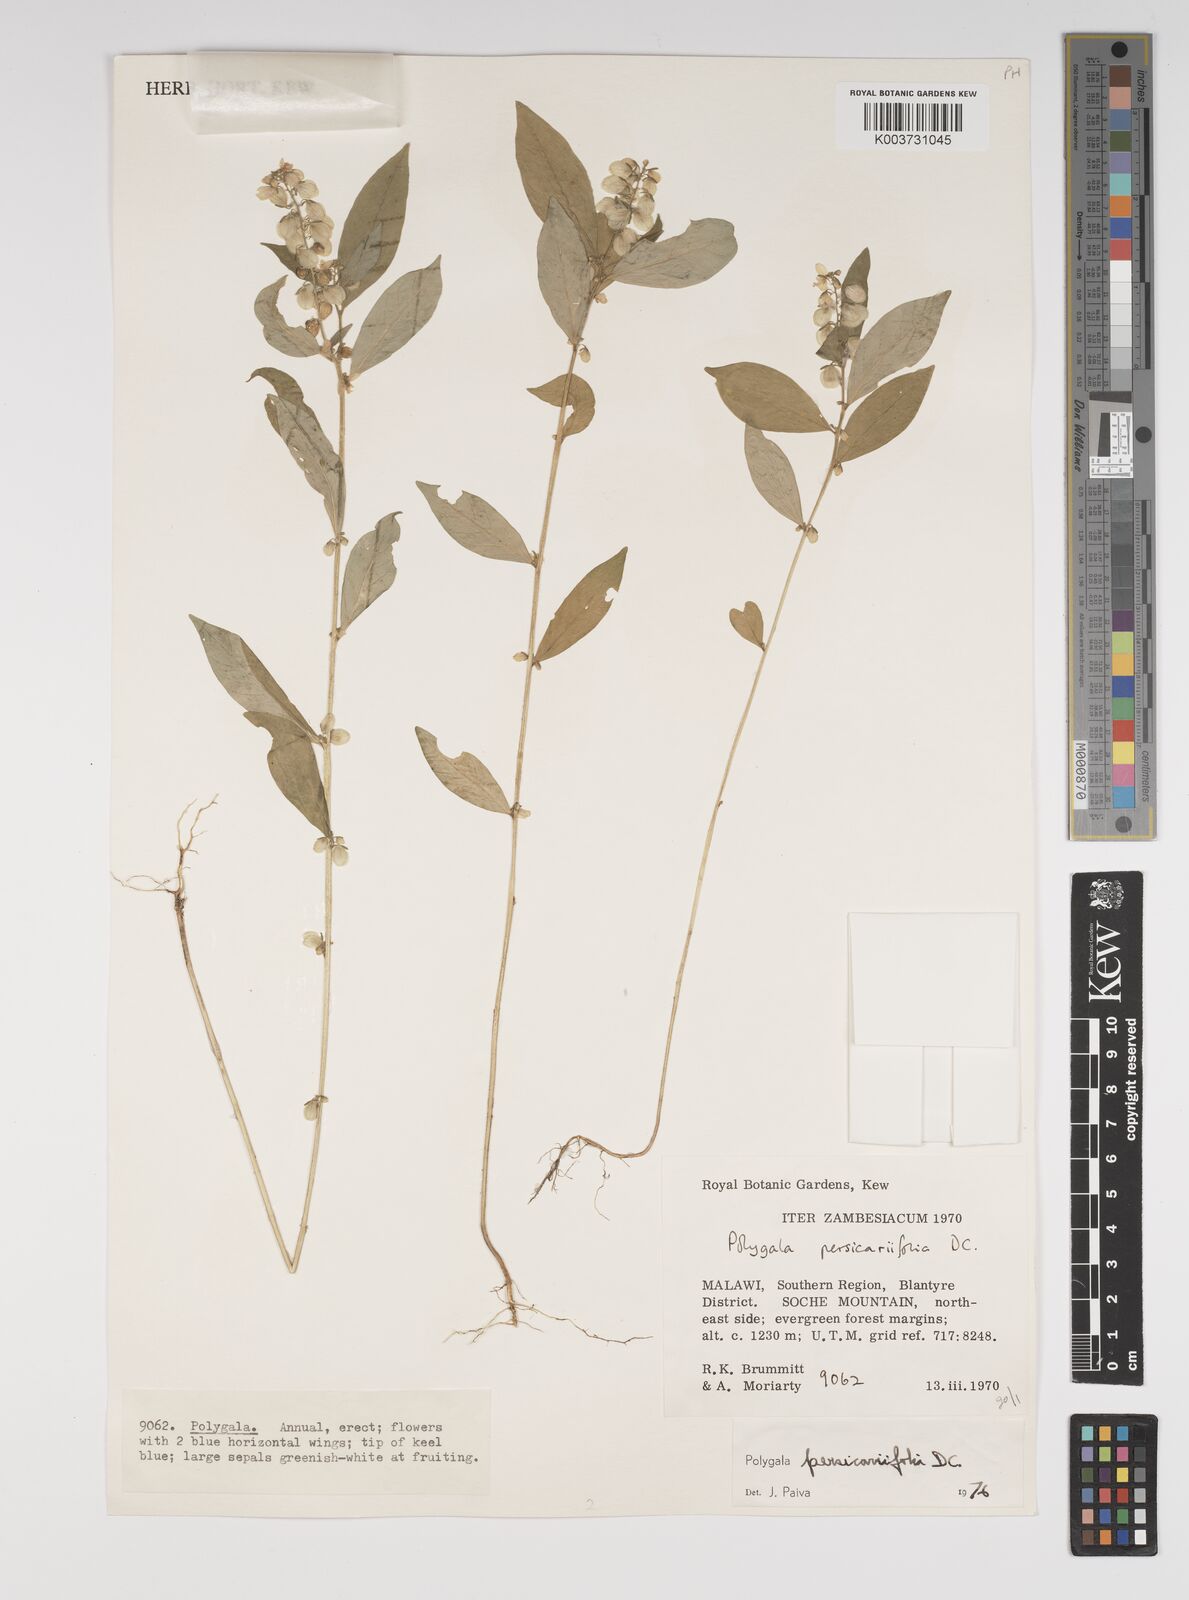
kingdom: Plantae
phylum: Tracheophyta
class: Magnoliopsida
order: Fabales
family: Polygalaceae
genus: Polygala
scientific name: Polygala persicariifolia
